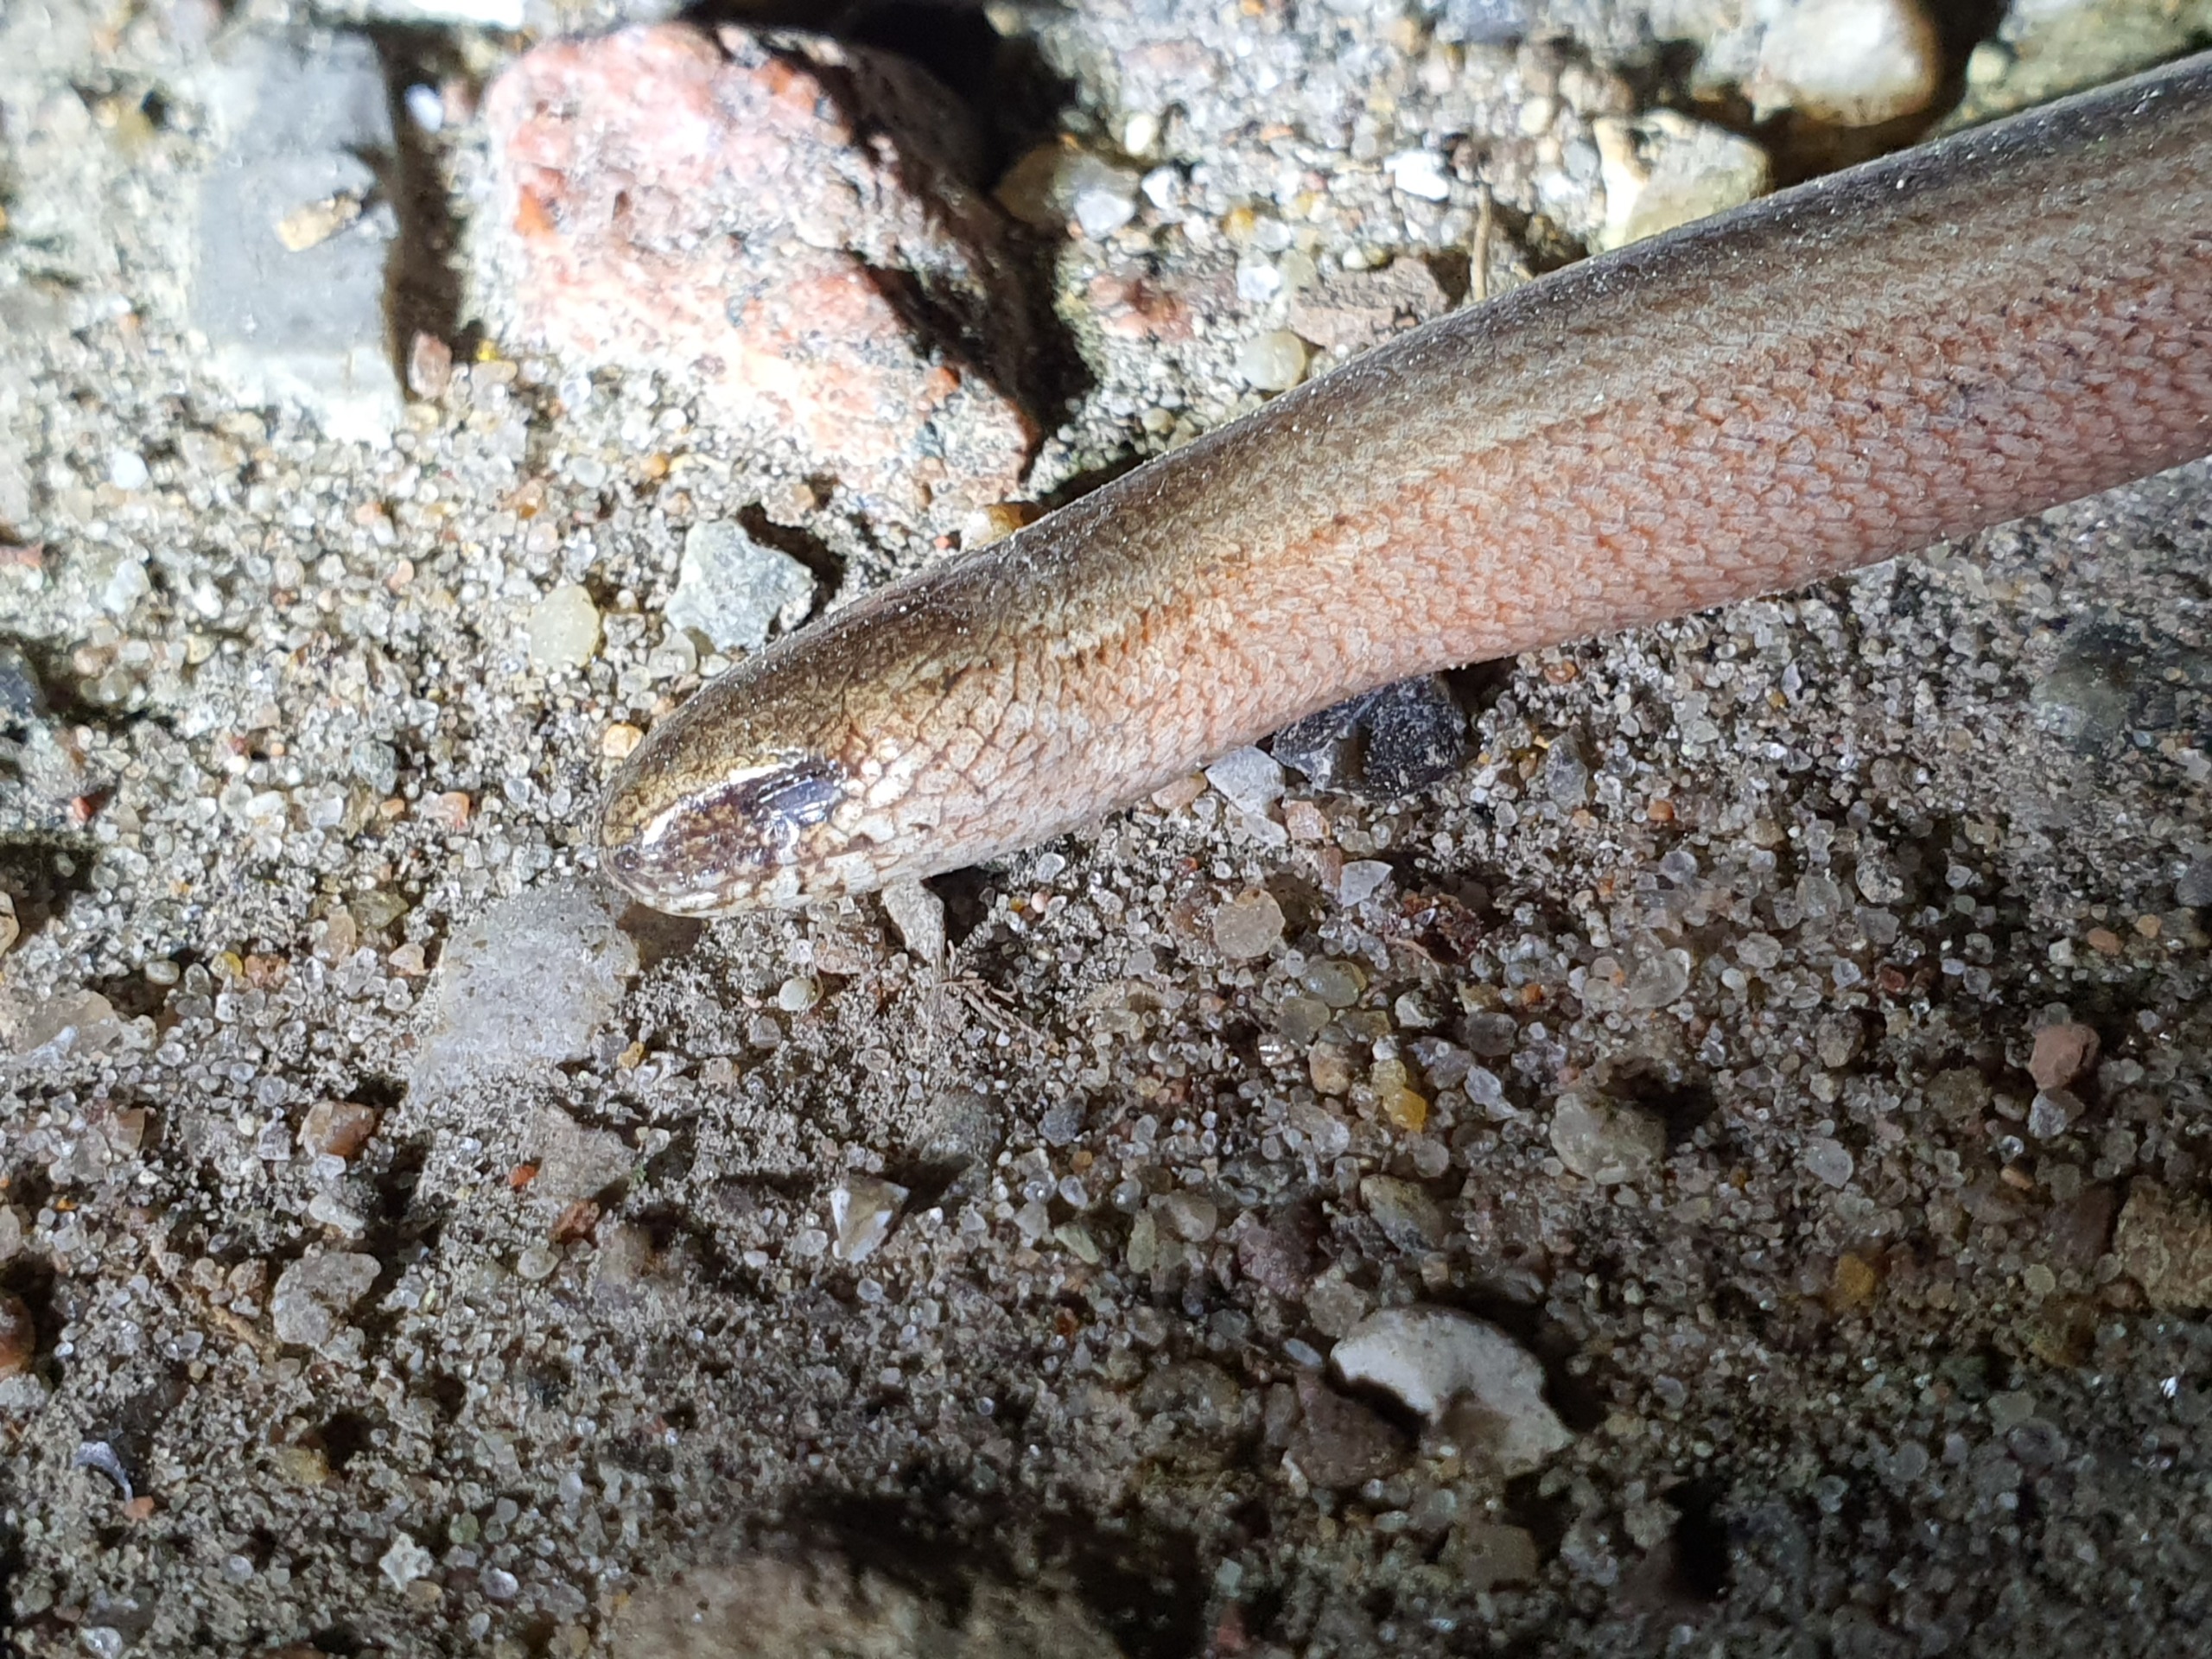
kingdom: Animalia
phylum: Chordata
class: Squamata
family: Anguidae
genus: Anguis
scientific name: Anguis fragilis
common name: Stålorm
